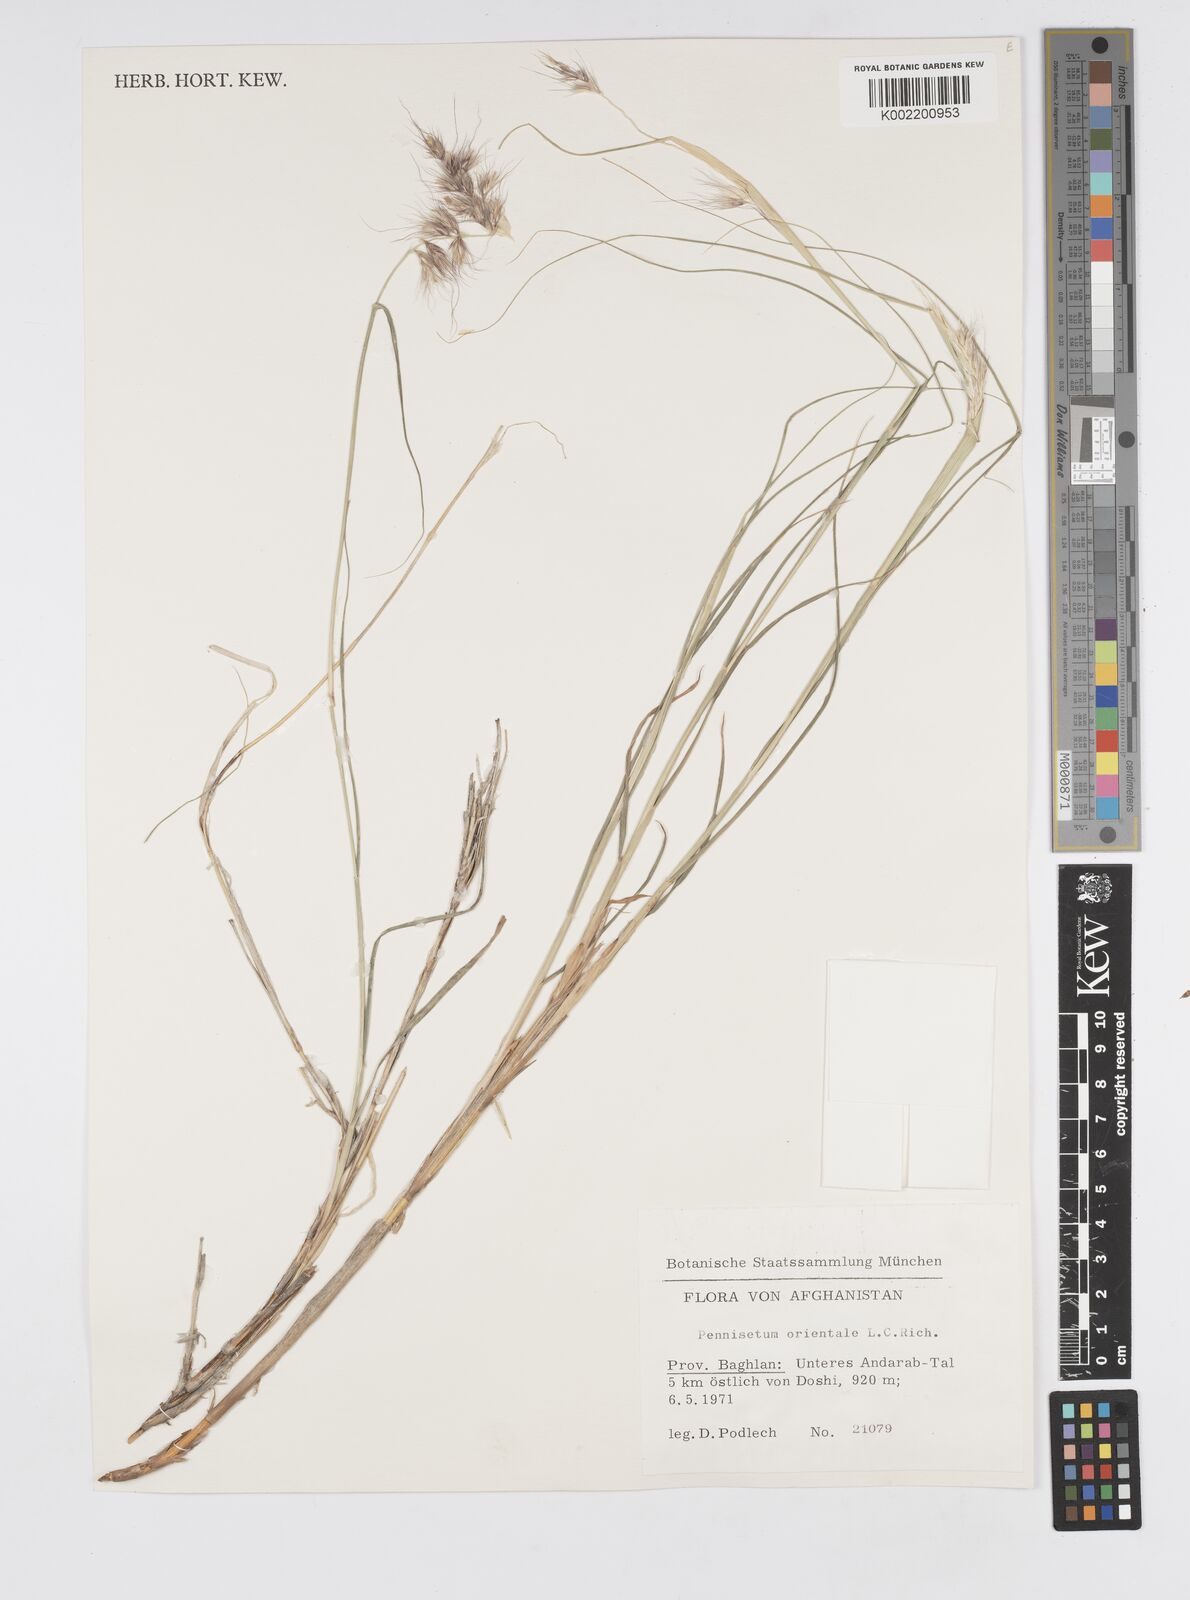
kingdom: Plantae
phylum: Tracheophyta
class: Liliopsida
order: Poales
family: Poaceae
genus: Cenchrus
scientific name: Cenchrus orientalis
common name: Oriental fountain grass
